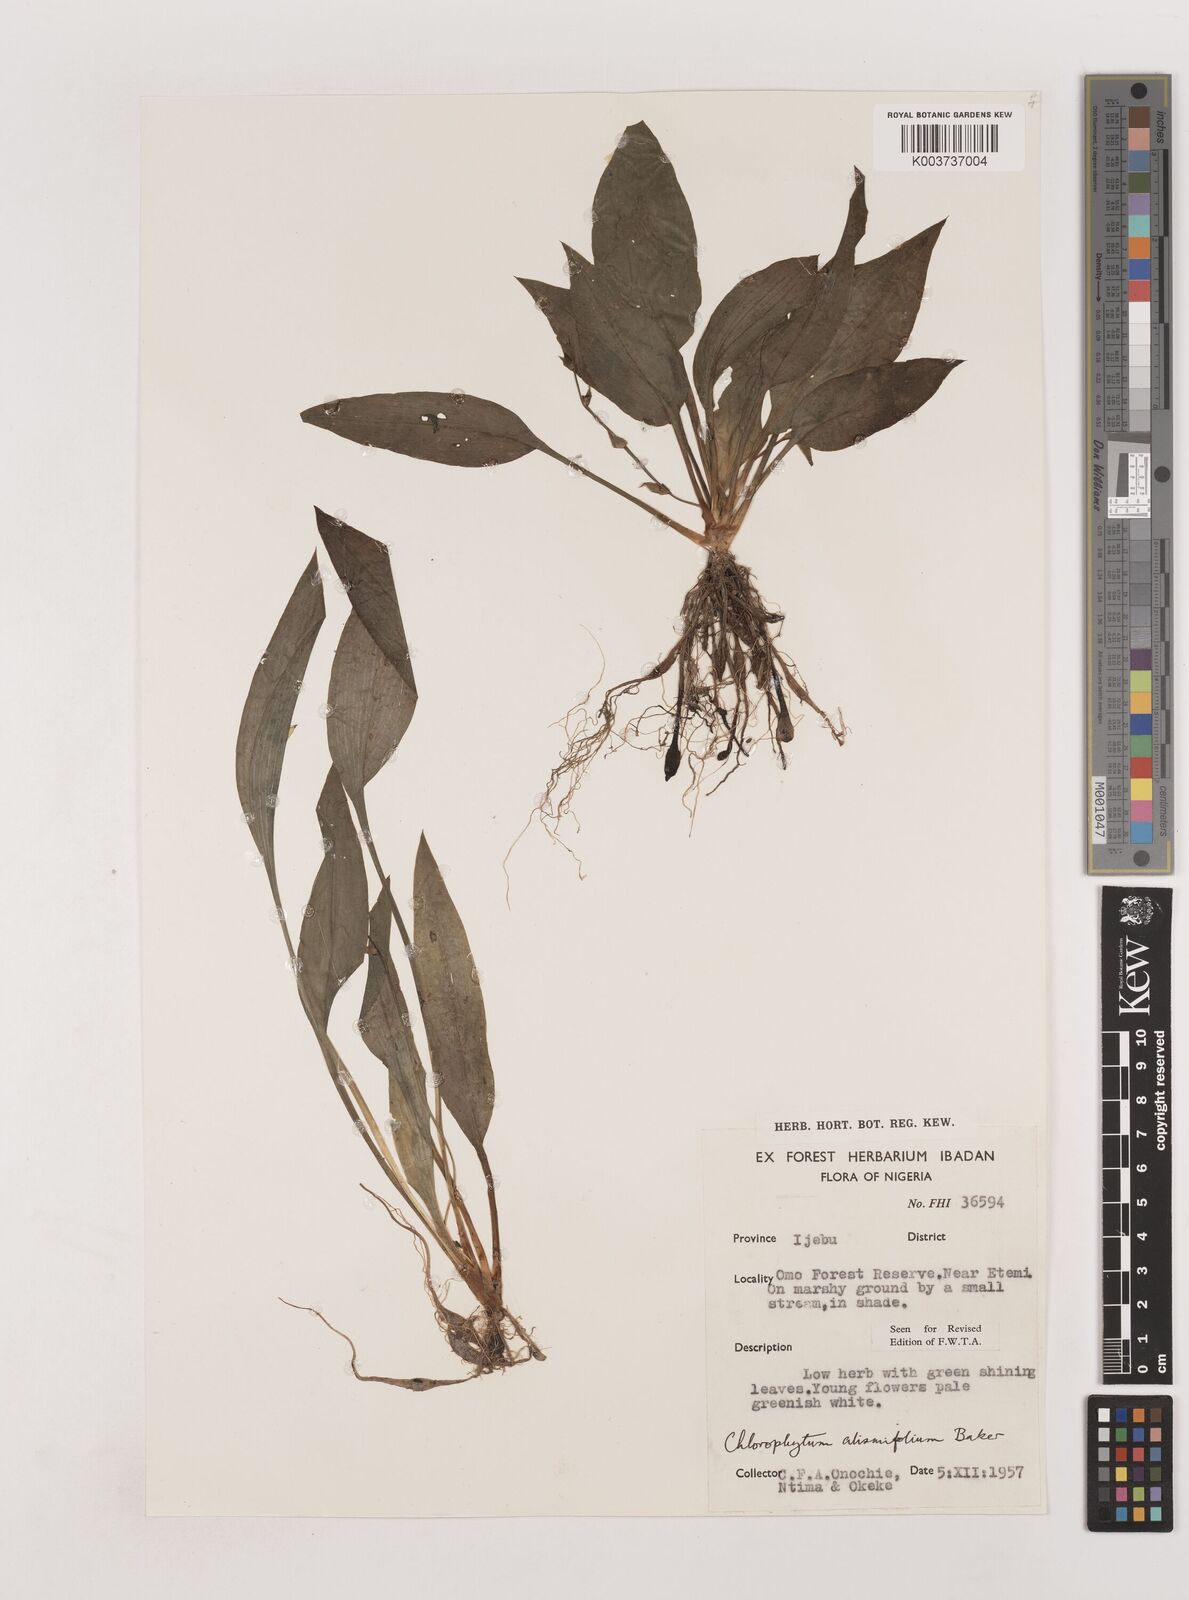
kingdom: Plantae
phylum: Tracheophyta
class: Liliopsida
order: Asparagales
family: Asparagaceae
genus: Chlorophytum
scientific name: Chlorophytum alismifolium
